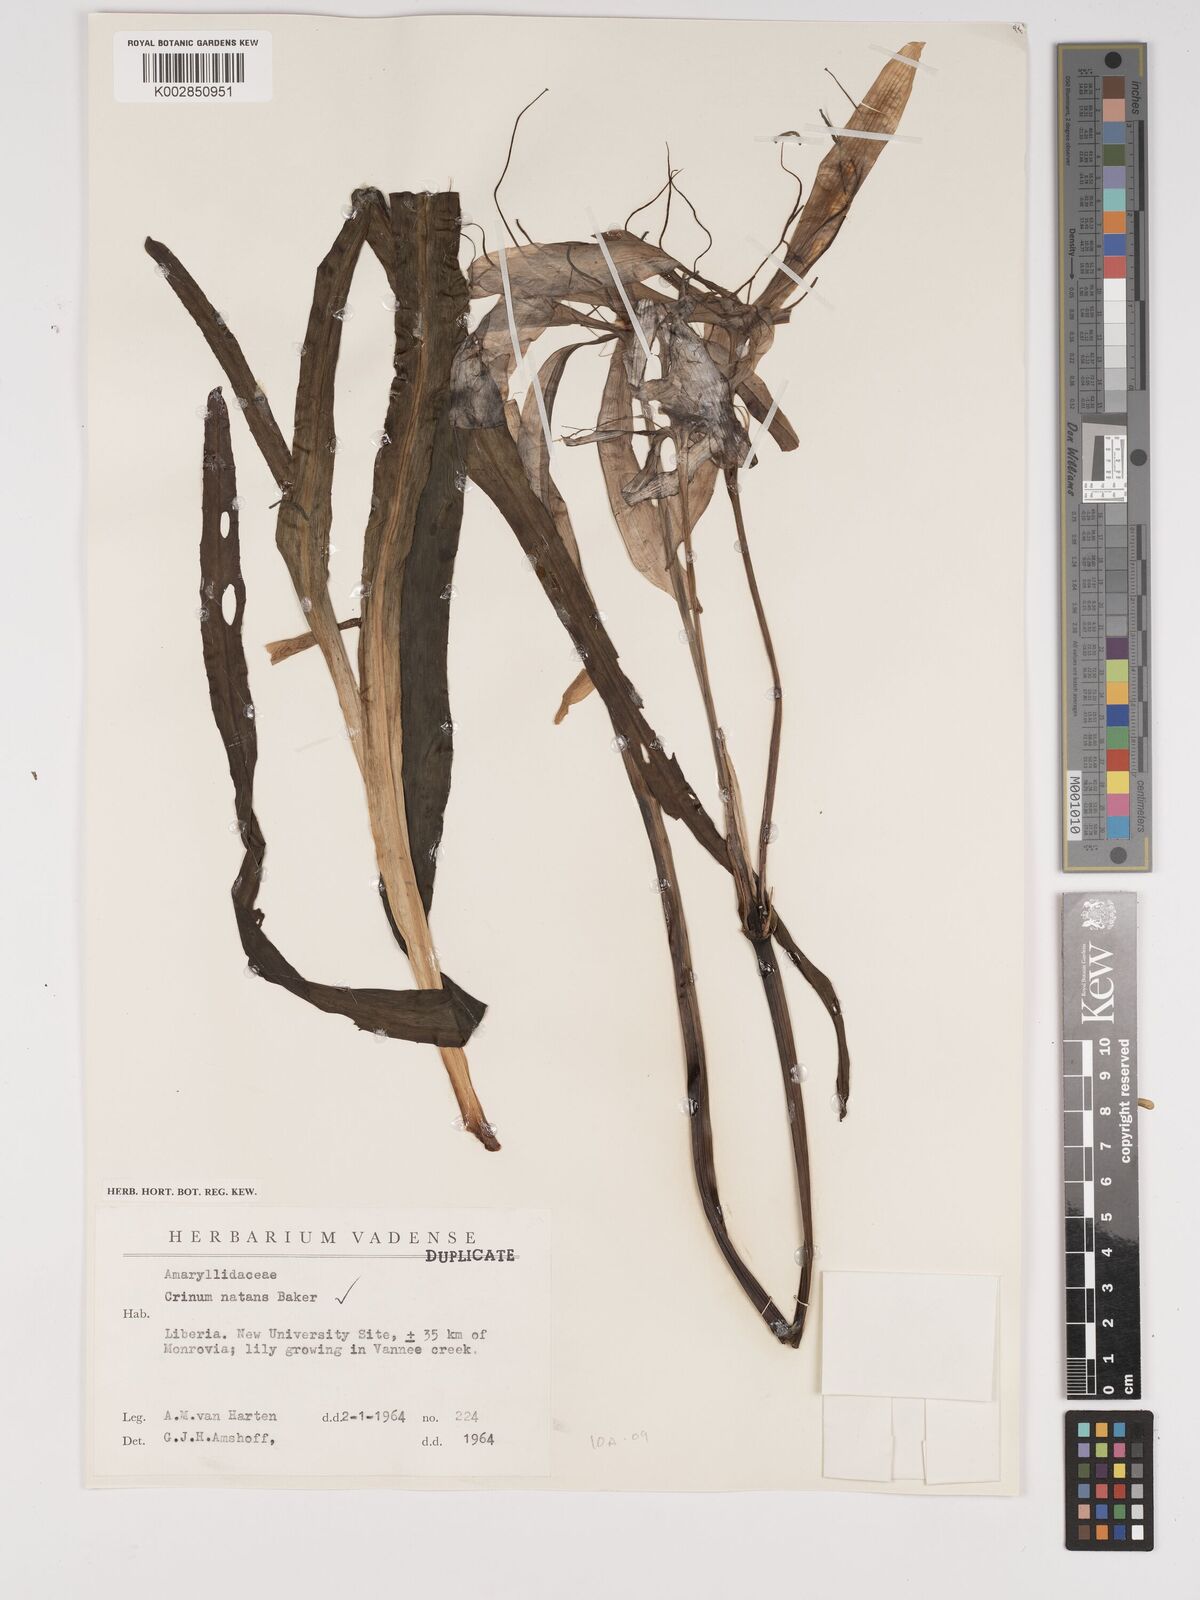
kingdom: Plantae
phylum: Tracheophyta
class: Liliopsida
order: Asparagales
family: Amaryllidaceae
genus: Crinum
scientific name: Crinum natans
